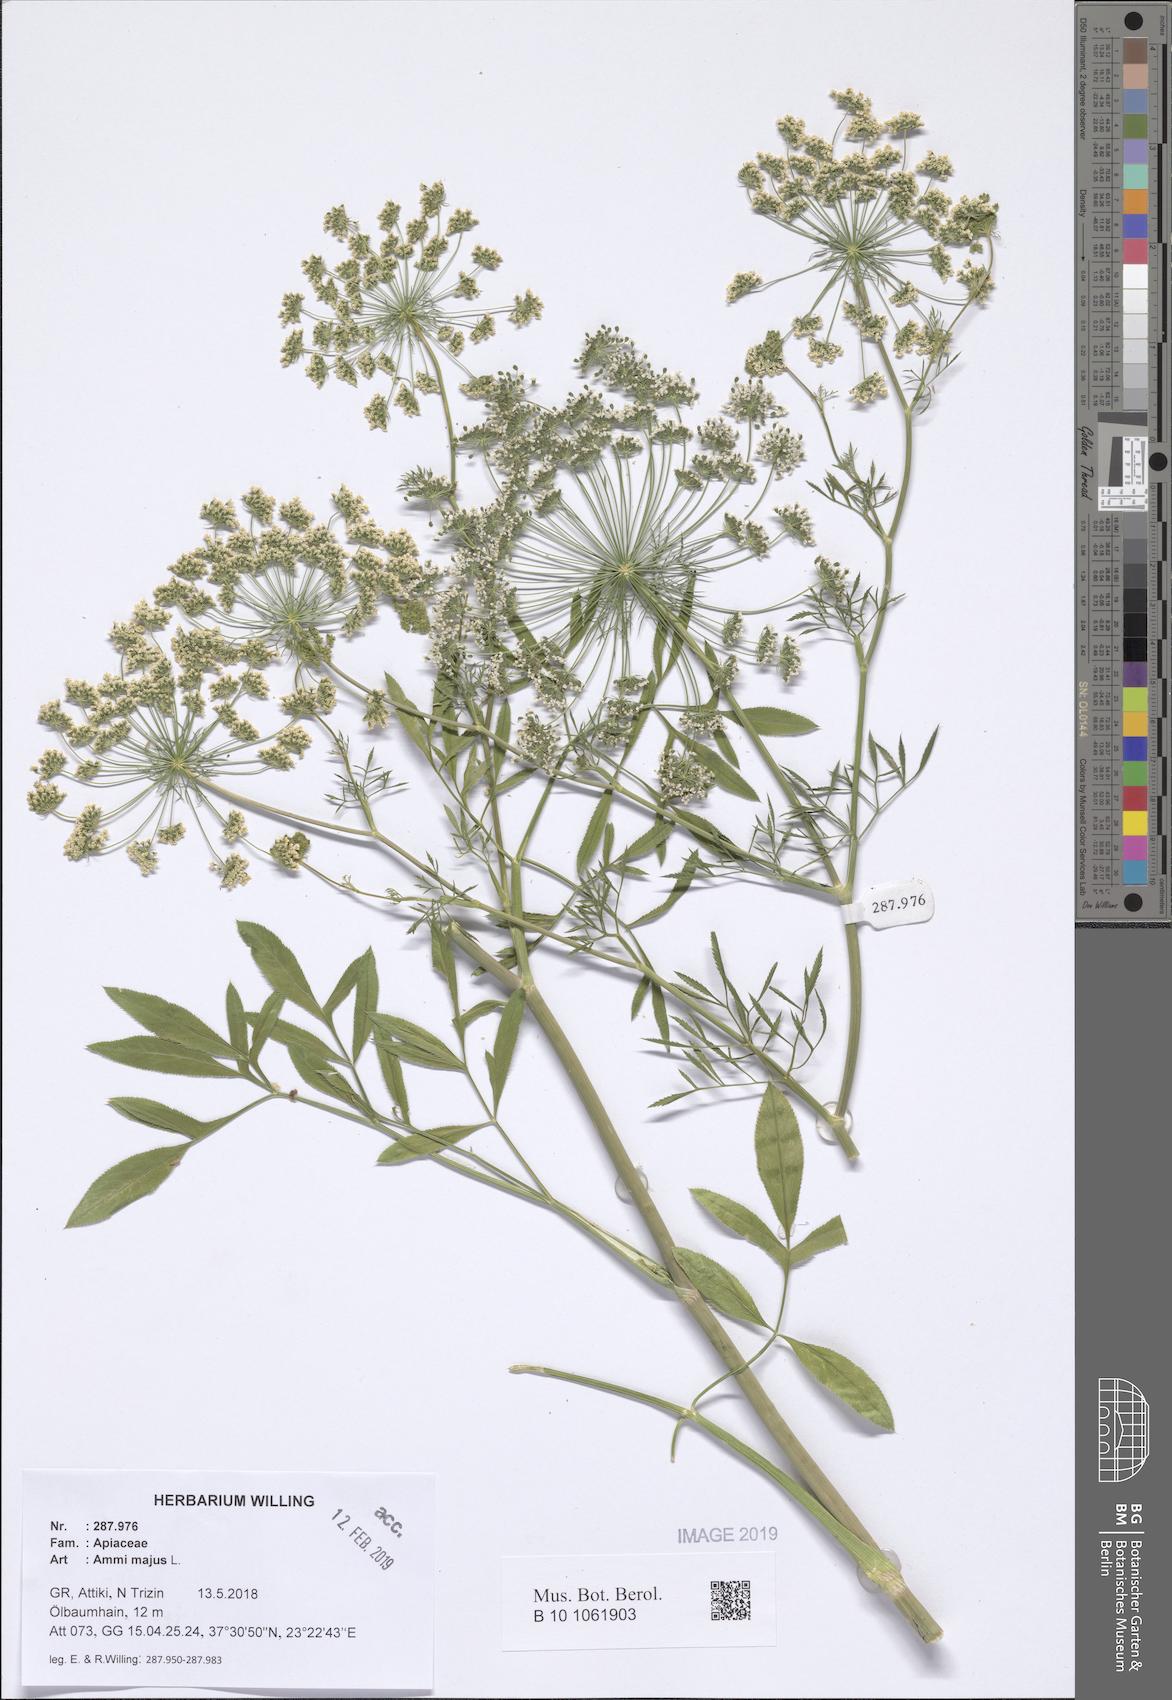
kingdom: Plantae
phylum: Tracheophyta
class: Magnoliopsida
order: Apiales
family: Apiaceae
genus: Ammi
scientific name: Ammi majus
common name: Bullwort
